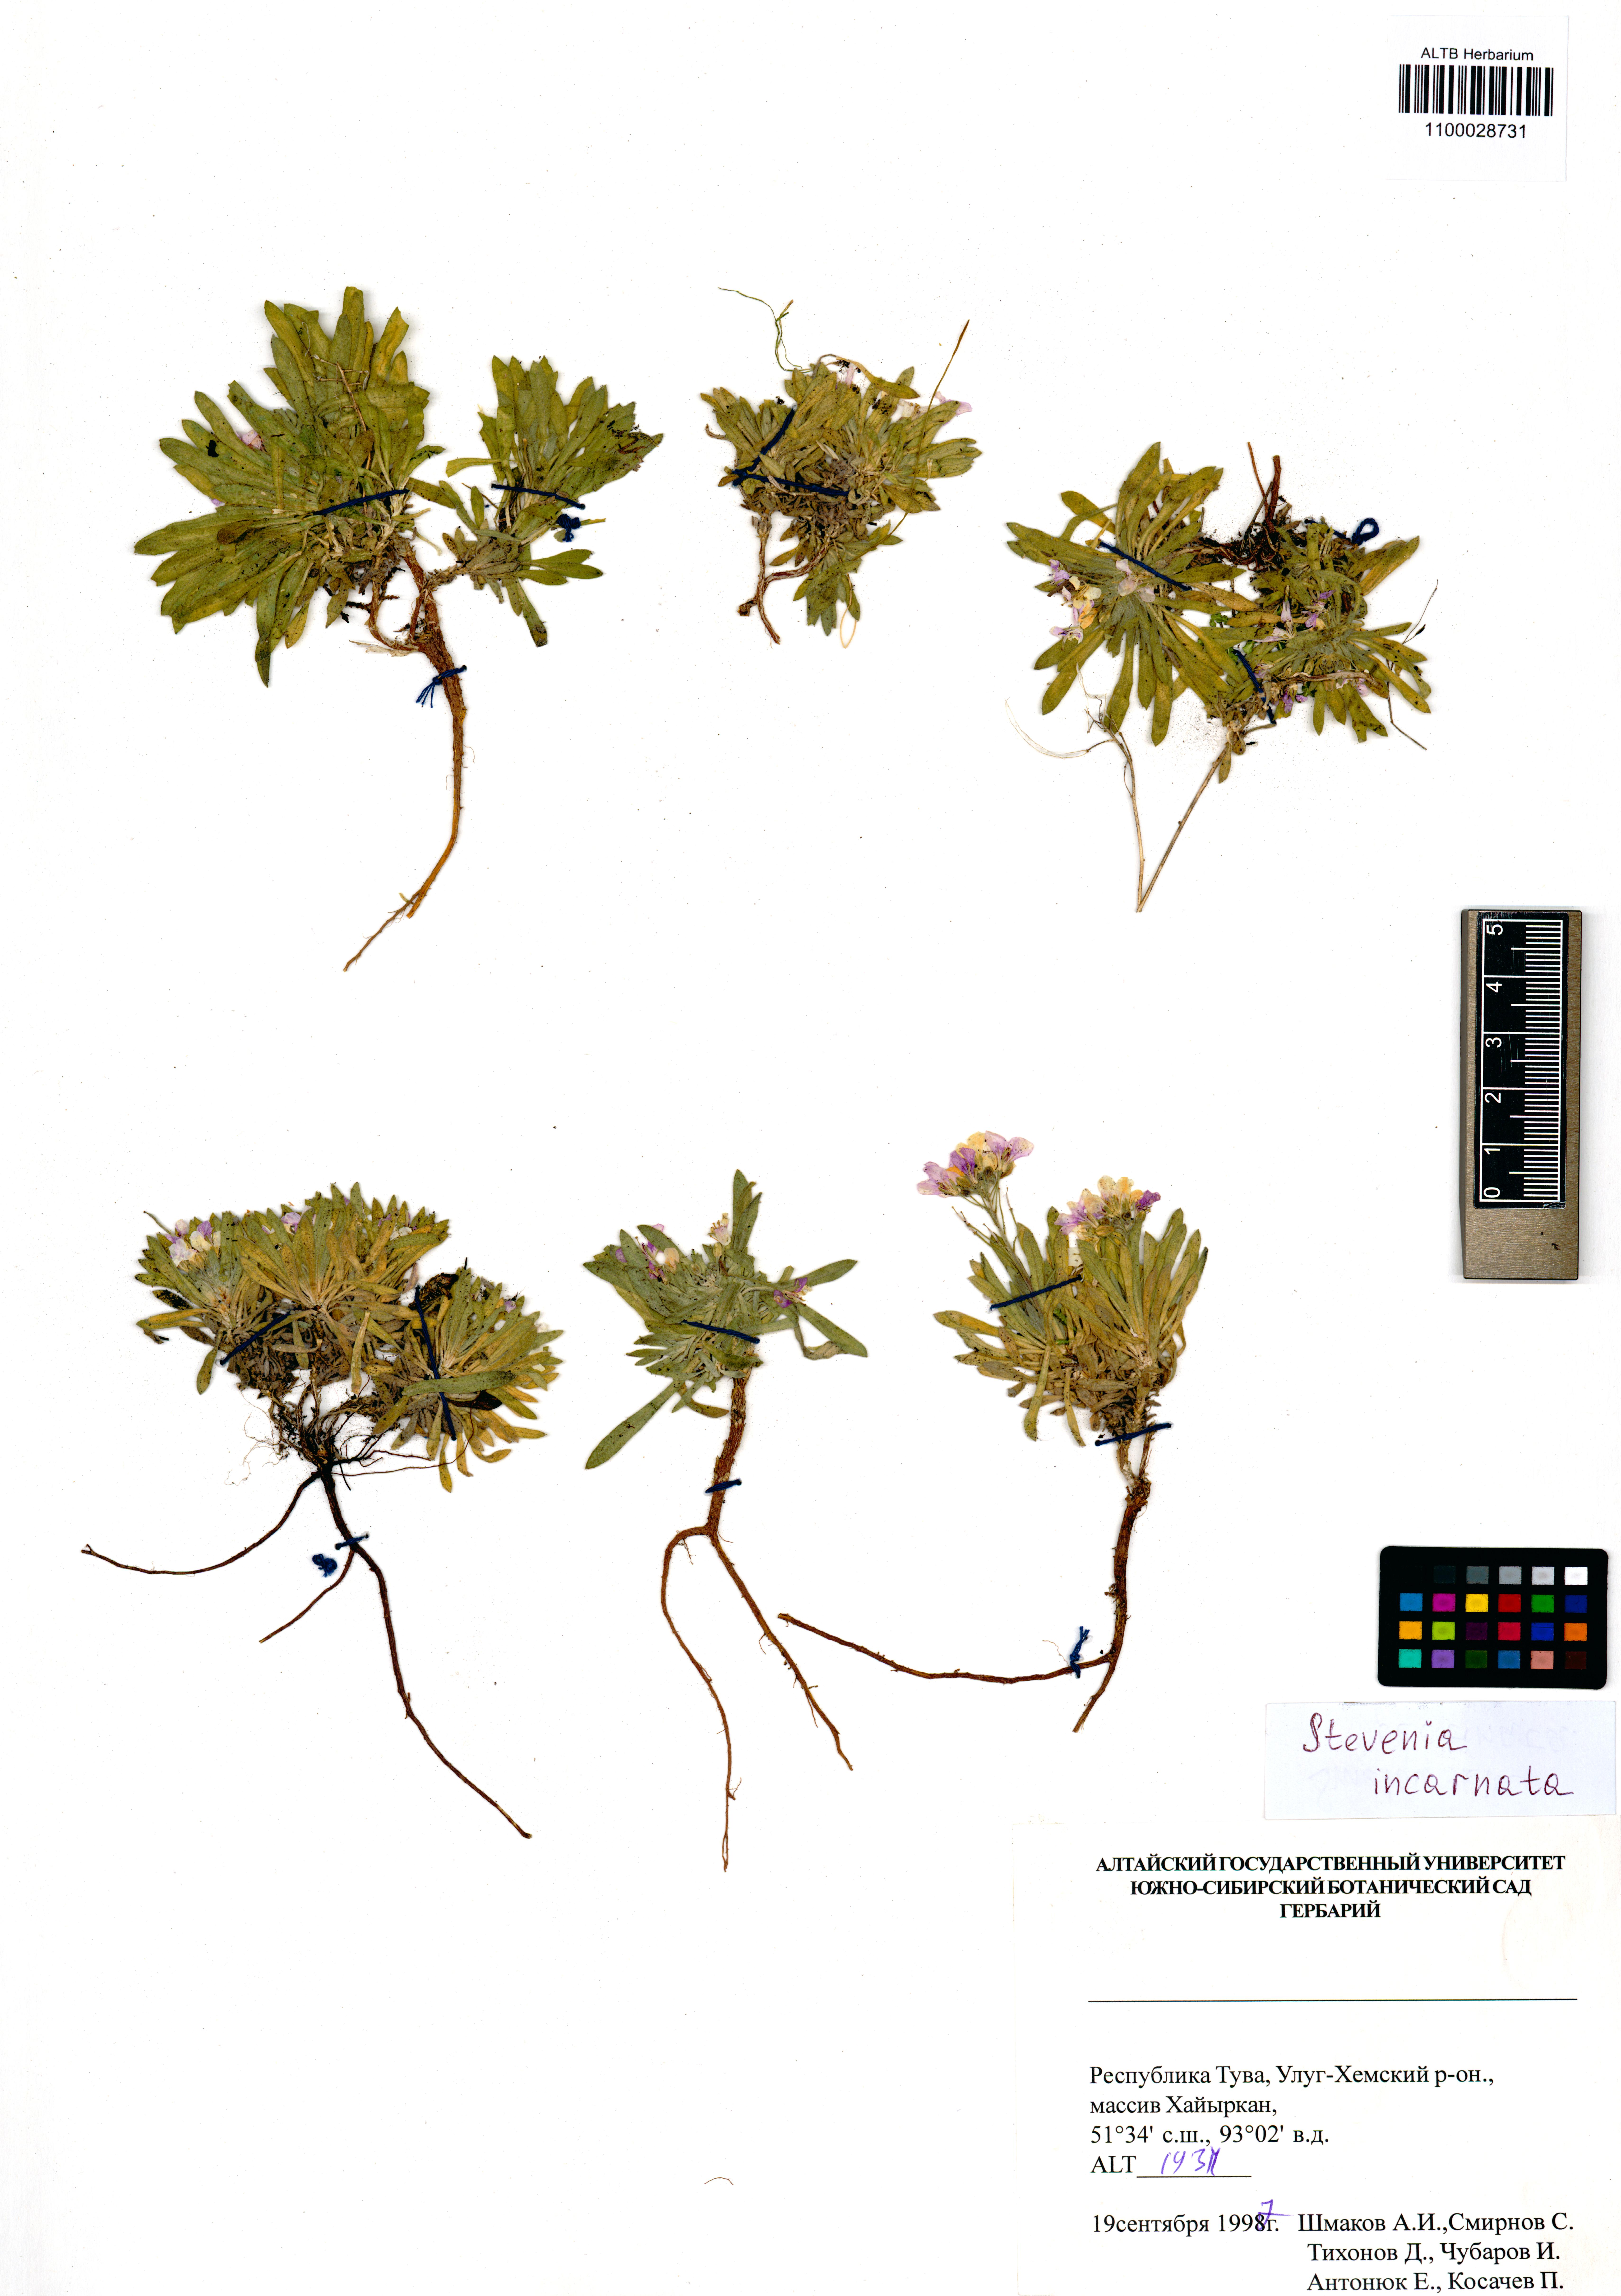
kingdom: Plantae
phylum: Tracheophyta
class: Magnoliopsida
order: Brassicales
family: Brassicaceae
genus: Stevenia
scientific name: Stevenia incarnata
